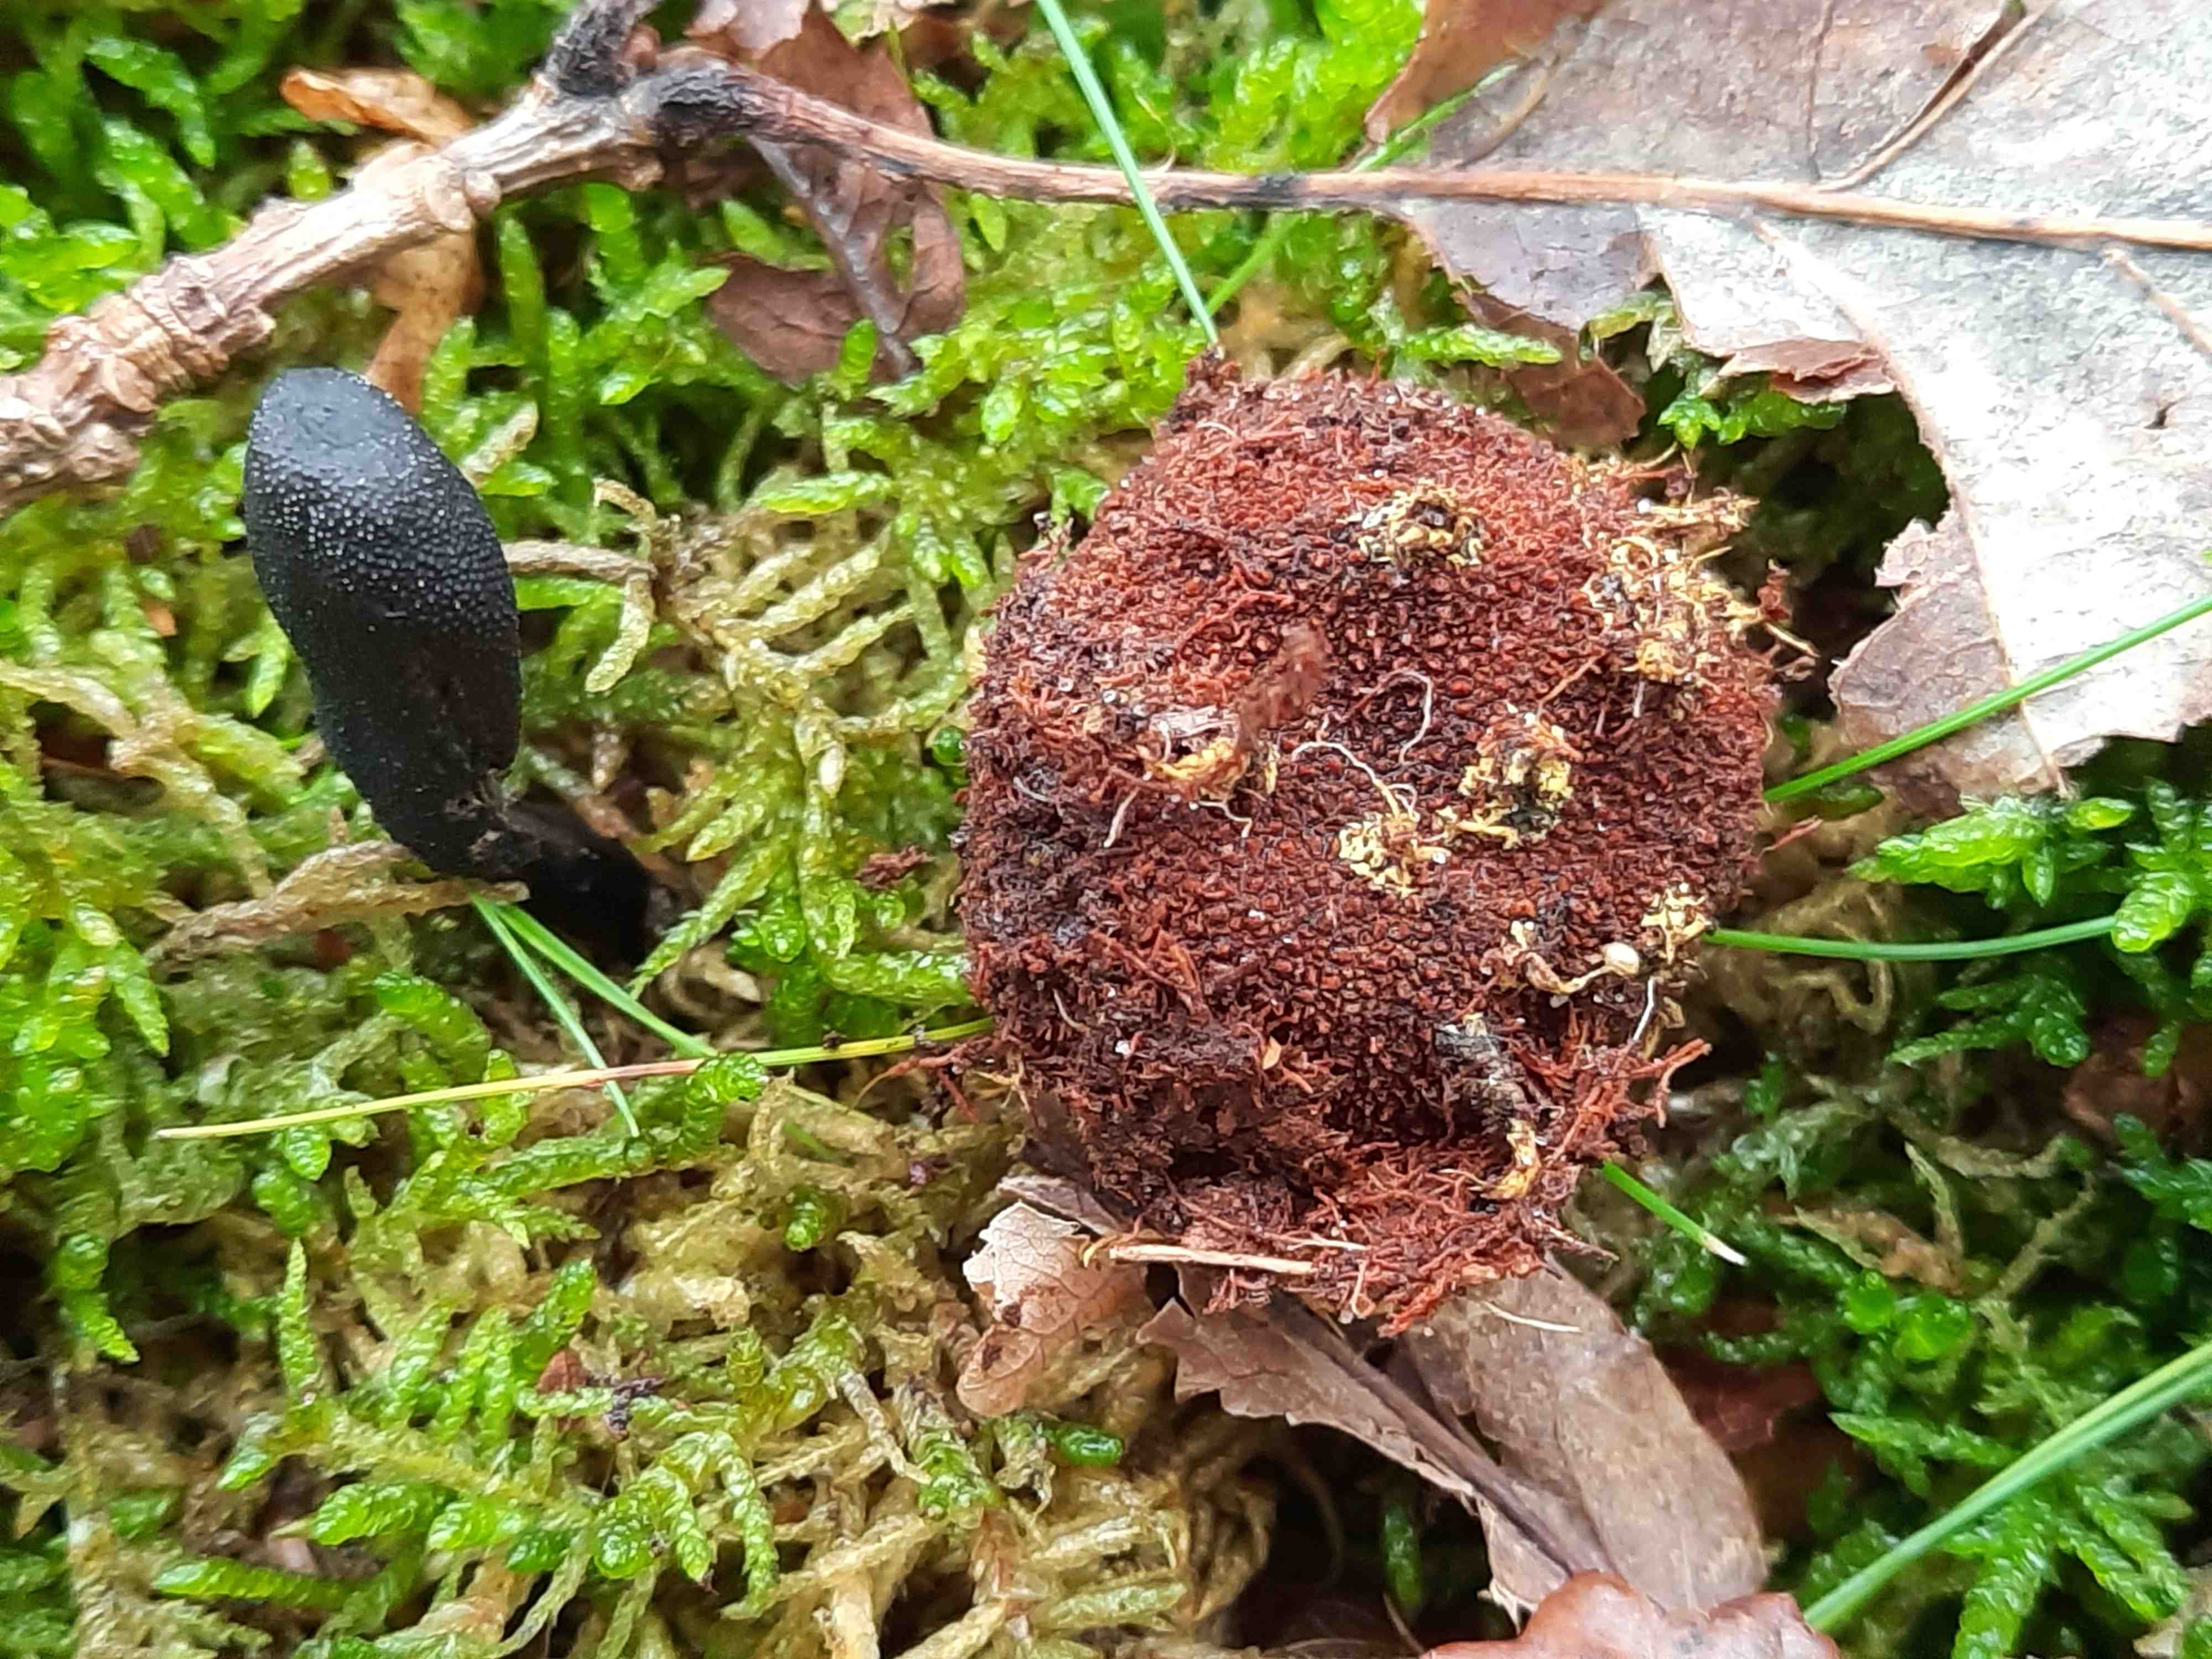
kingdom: Fungi
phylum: Ascomycota
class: Eurotiomycetes
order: Eurotiales
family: Elaphomycetaceae
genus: Elaphomyces
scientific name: Elaphomyces
